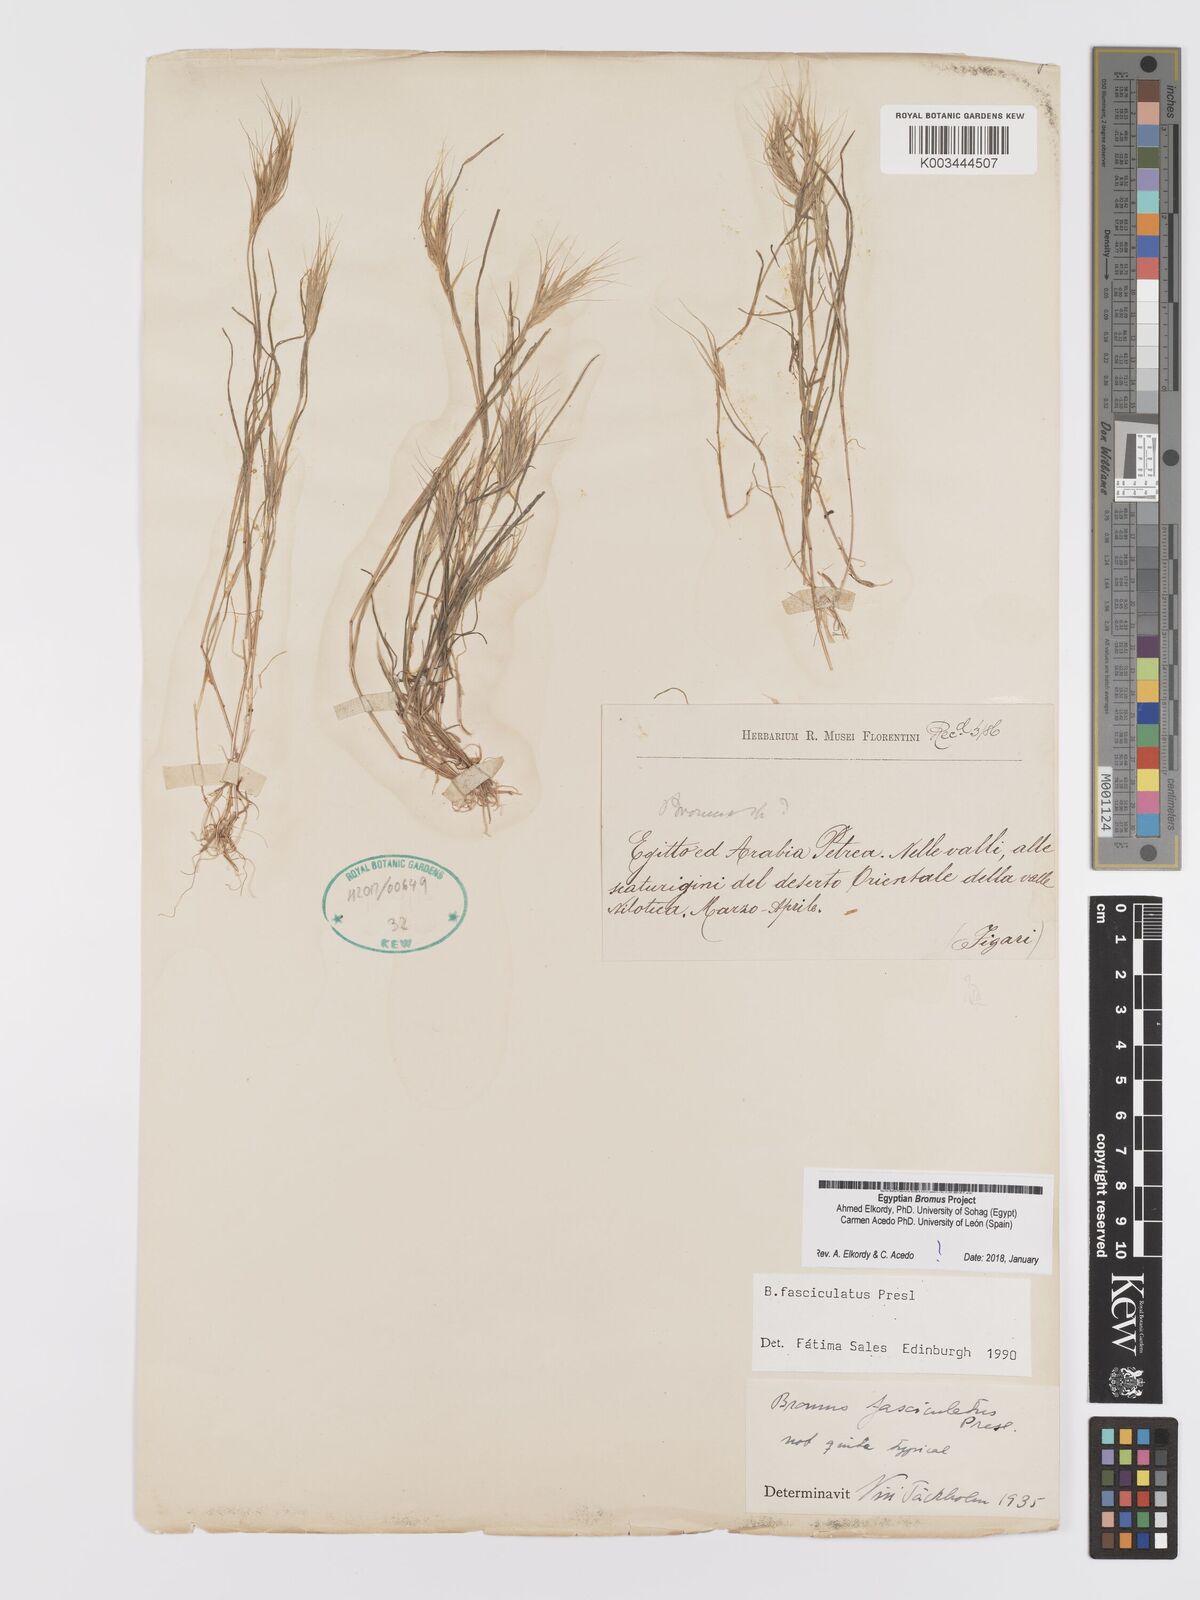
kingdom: Plantae
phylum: Tracheophyta
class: Liliopsida
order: Poales
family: Poaceae
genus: Bromus
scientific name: Bromus fasciculatus
